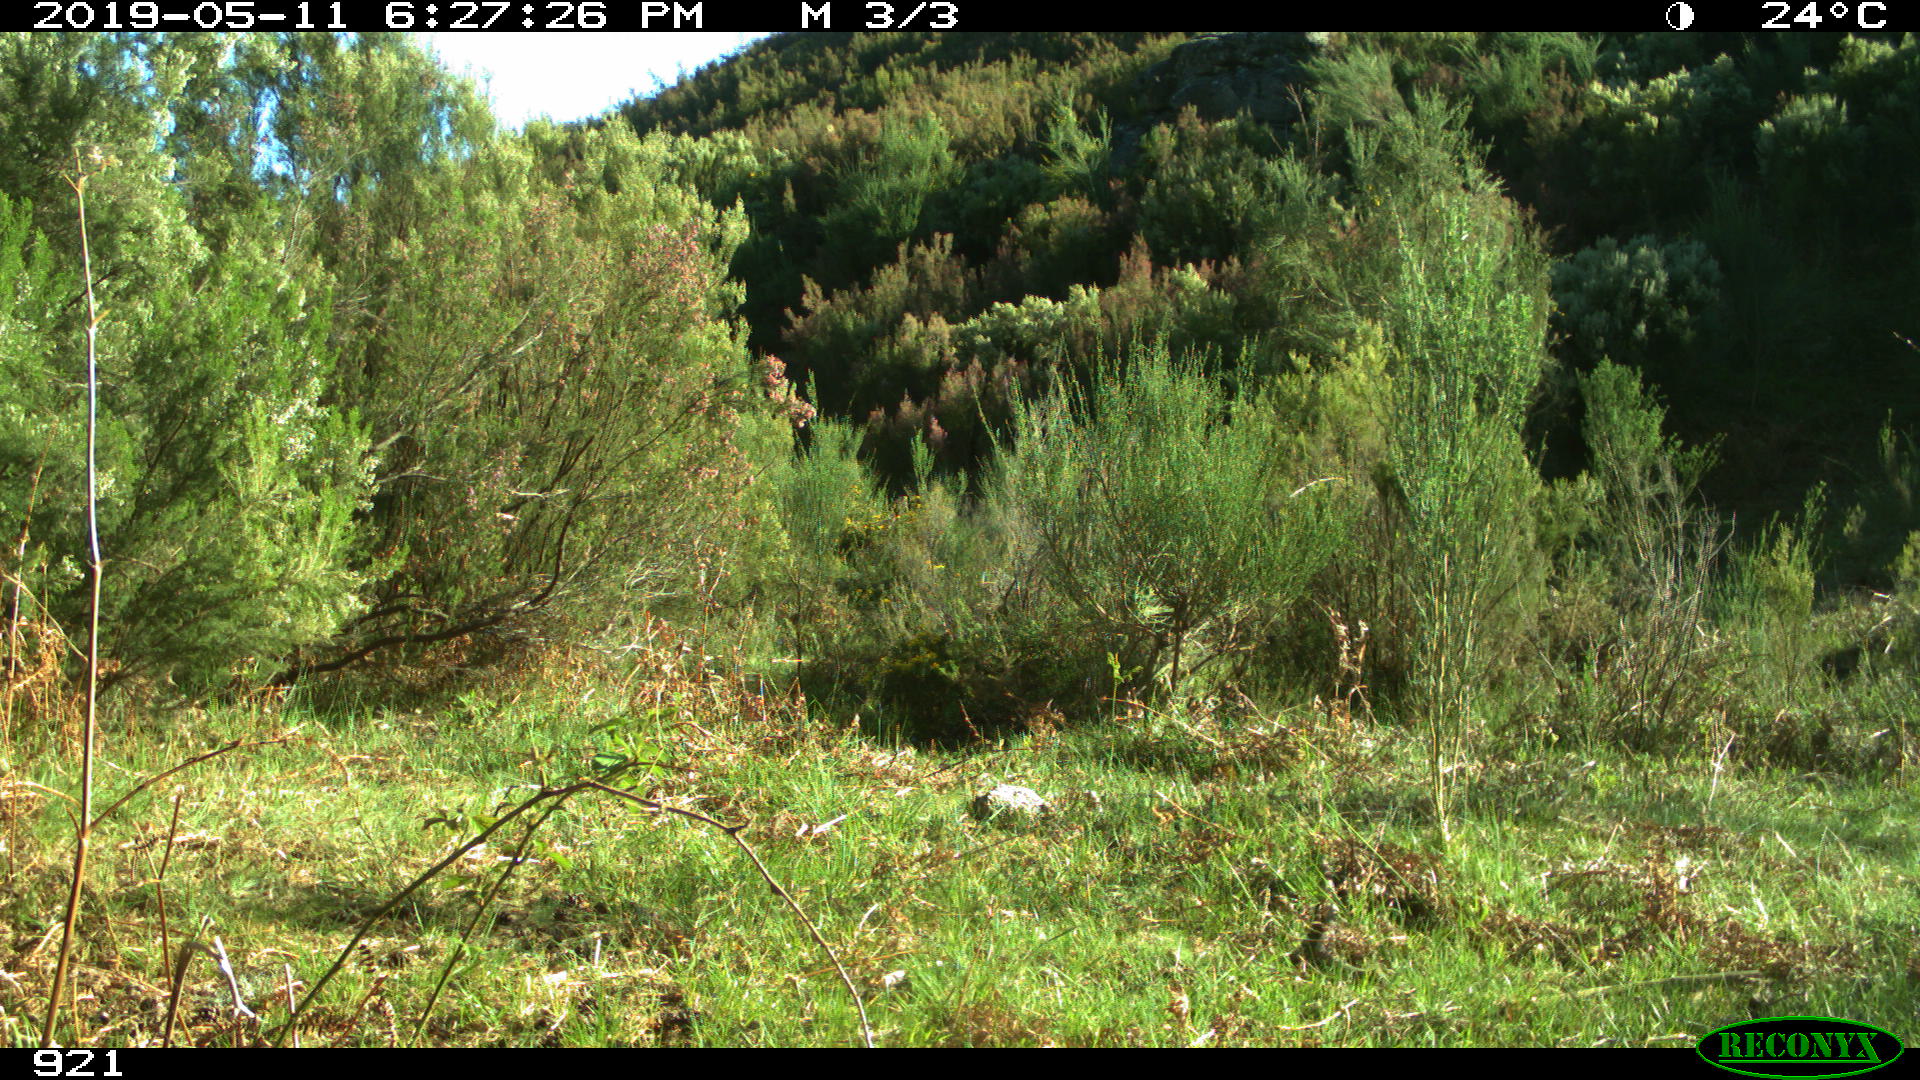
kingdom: Animalia
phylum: Chordata
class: Mammalia
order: Perissodactyla
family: Equidae
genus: Equus
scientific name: Equus caballus
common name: Horse
